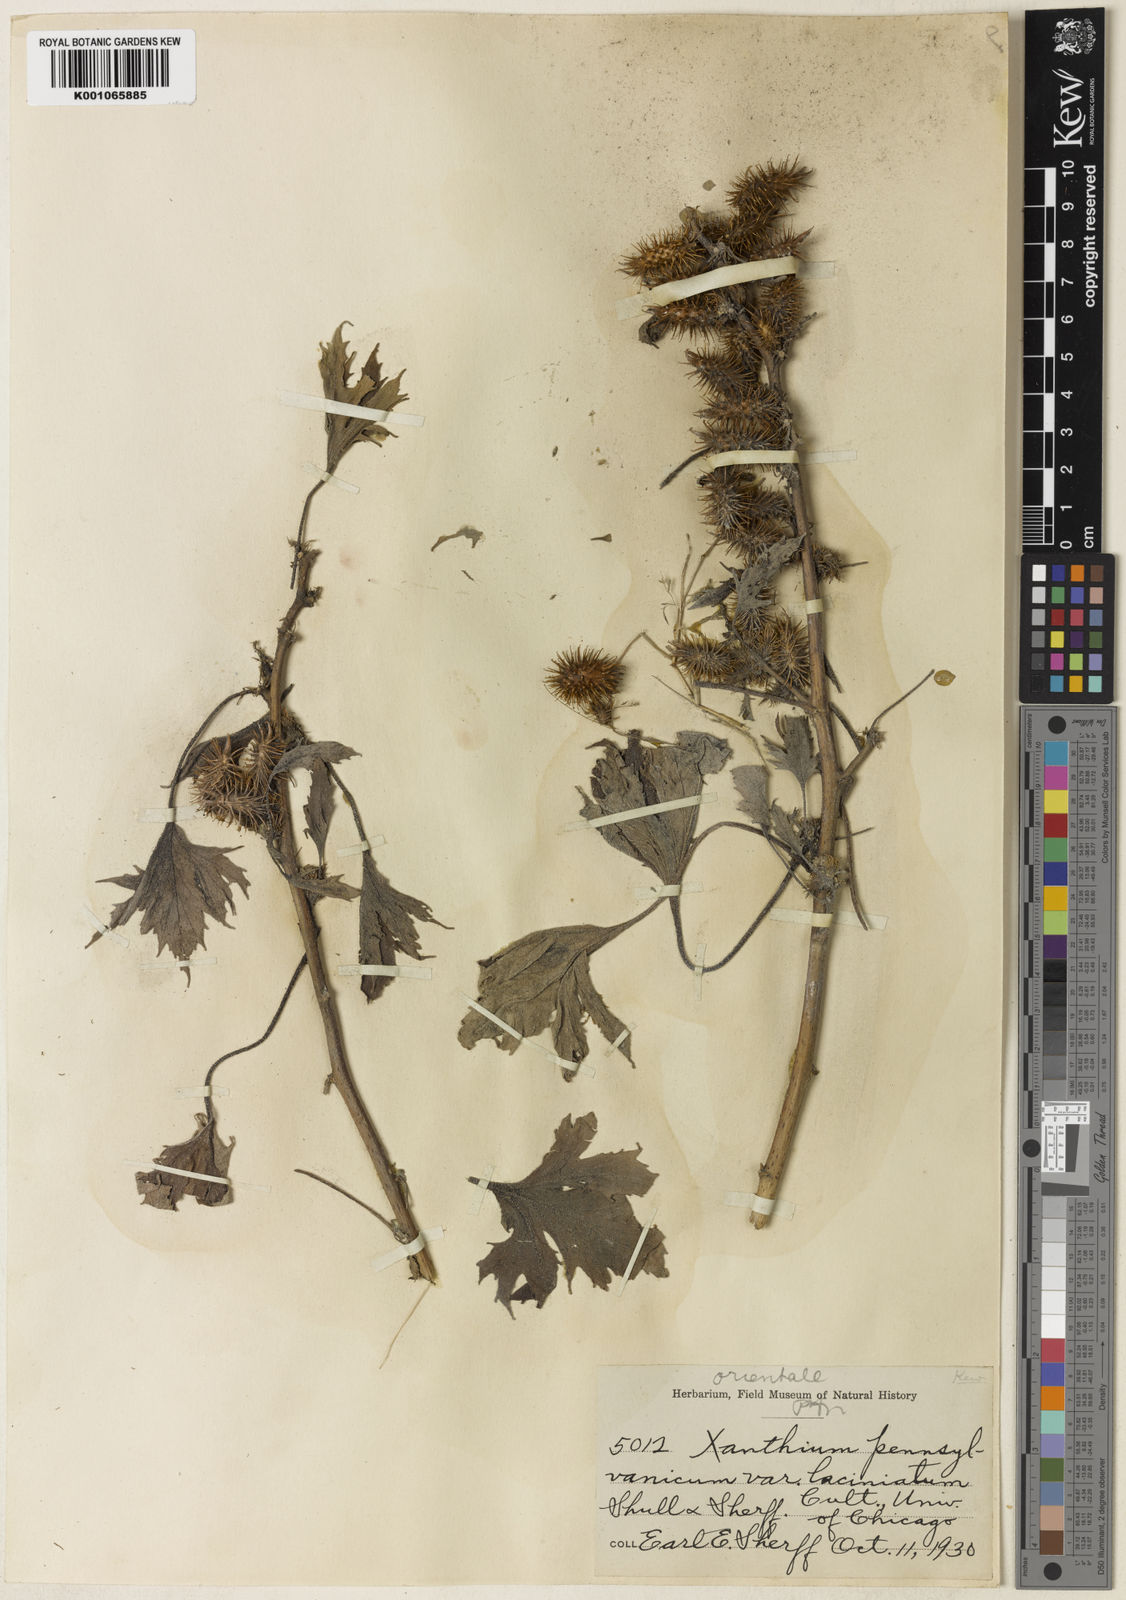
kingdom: Plantae
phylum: Tracheophyta
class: Magnoliopsida
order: Asterales
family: Asteraceae
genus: Xanthium
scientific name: Xanthium strumarium
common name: Rough cocklebur
